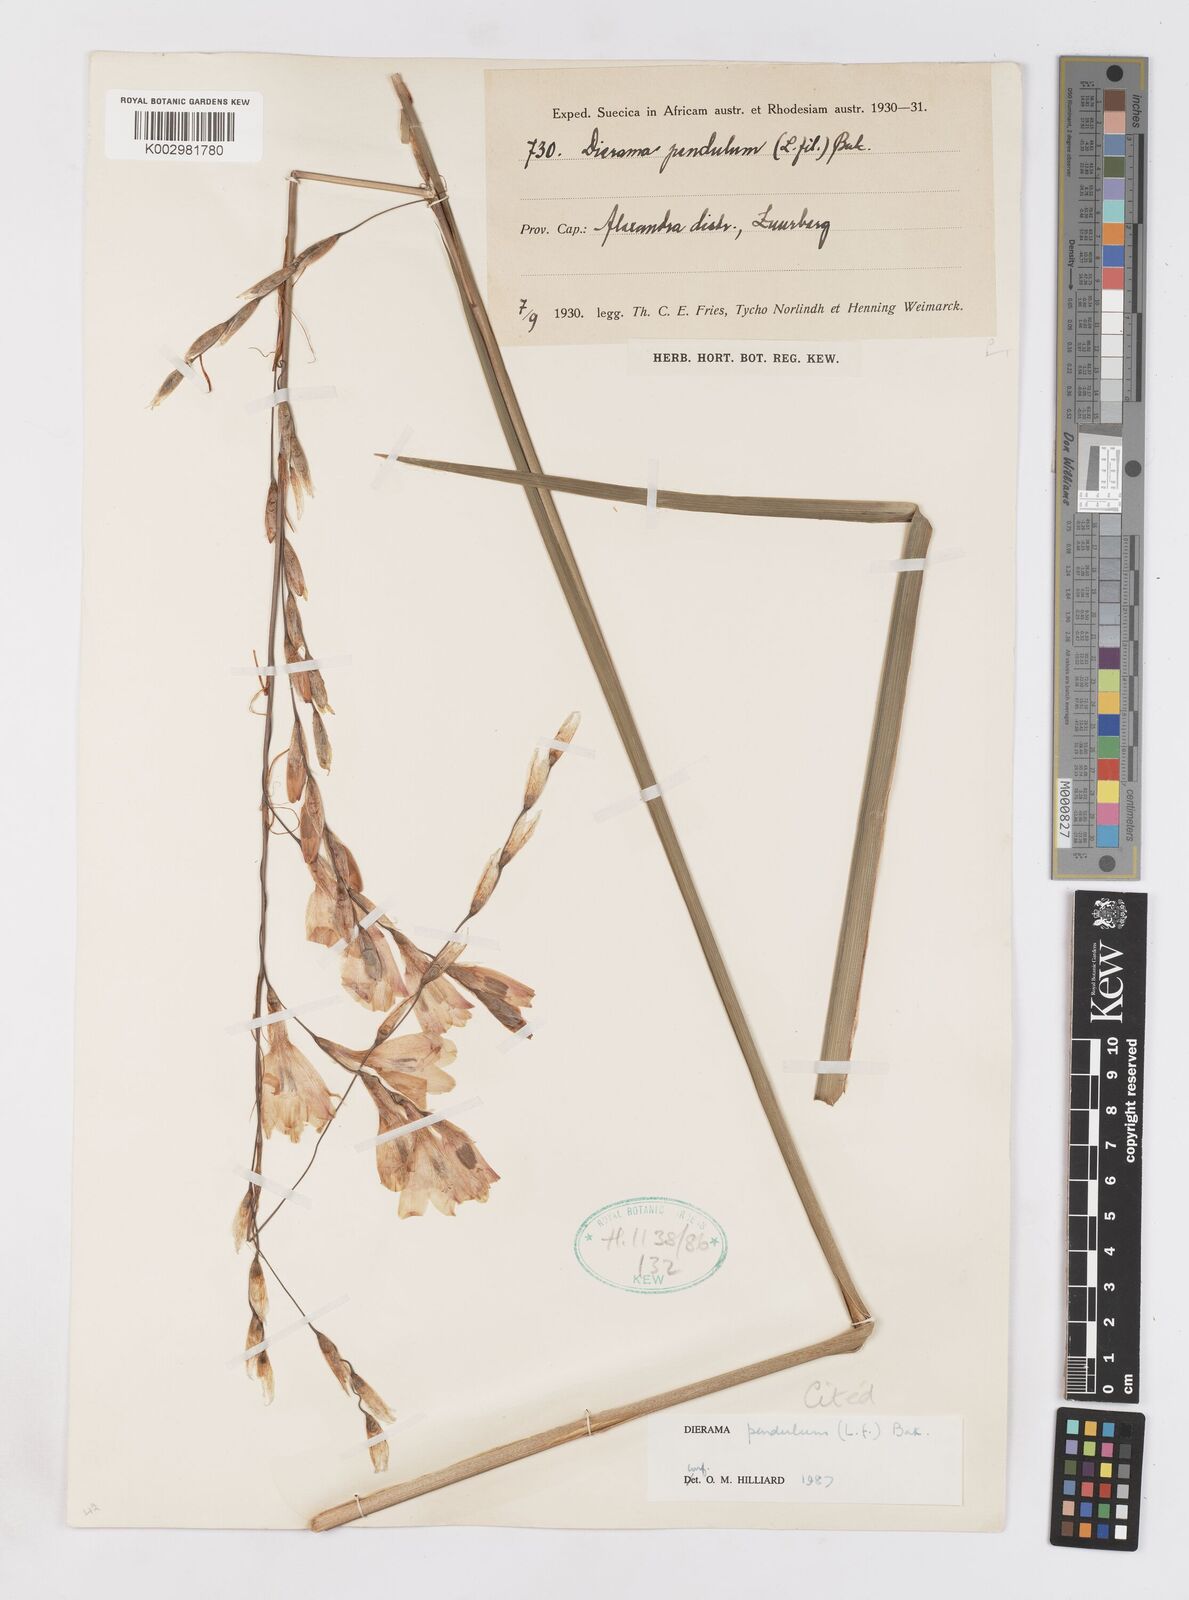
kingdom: Plantae
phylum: Tracheophyta
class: Liliopsida
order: Asparagales
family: Iridaceae
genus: Dierama
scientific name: Dierama pendulum
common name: Grassy-bell
